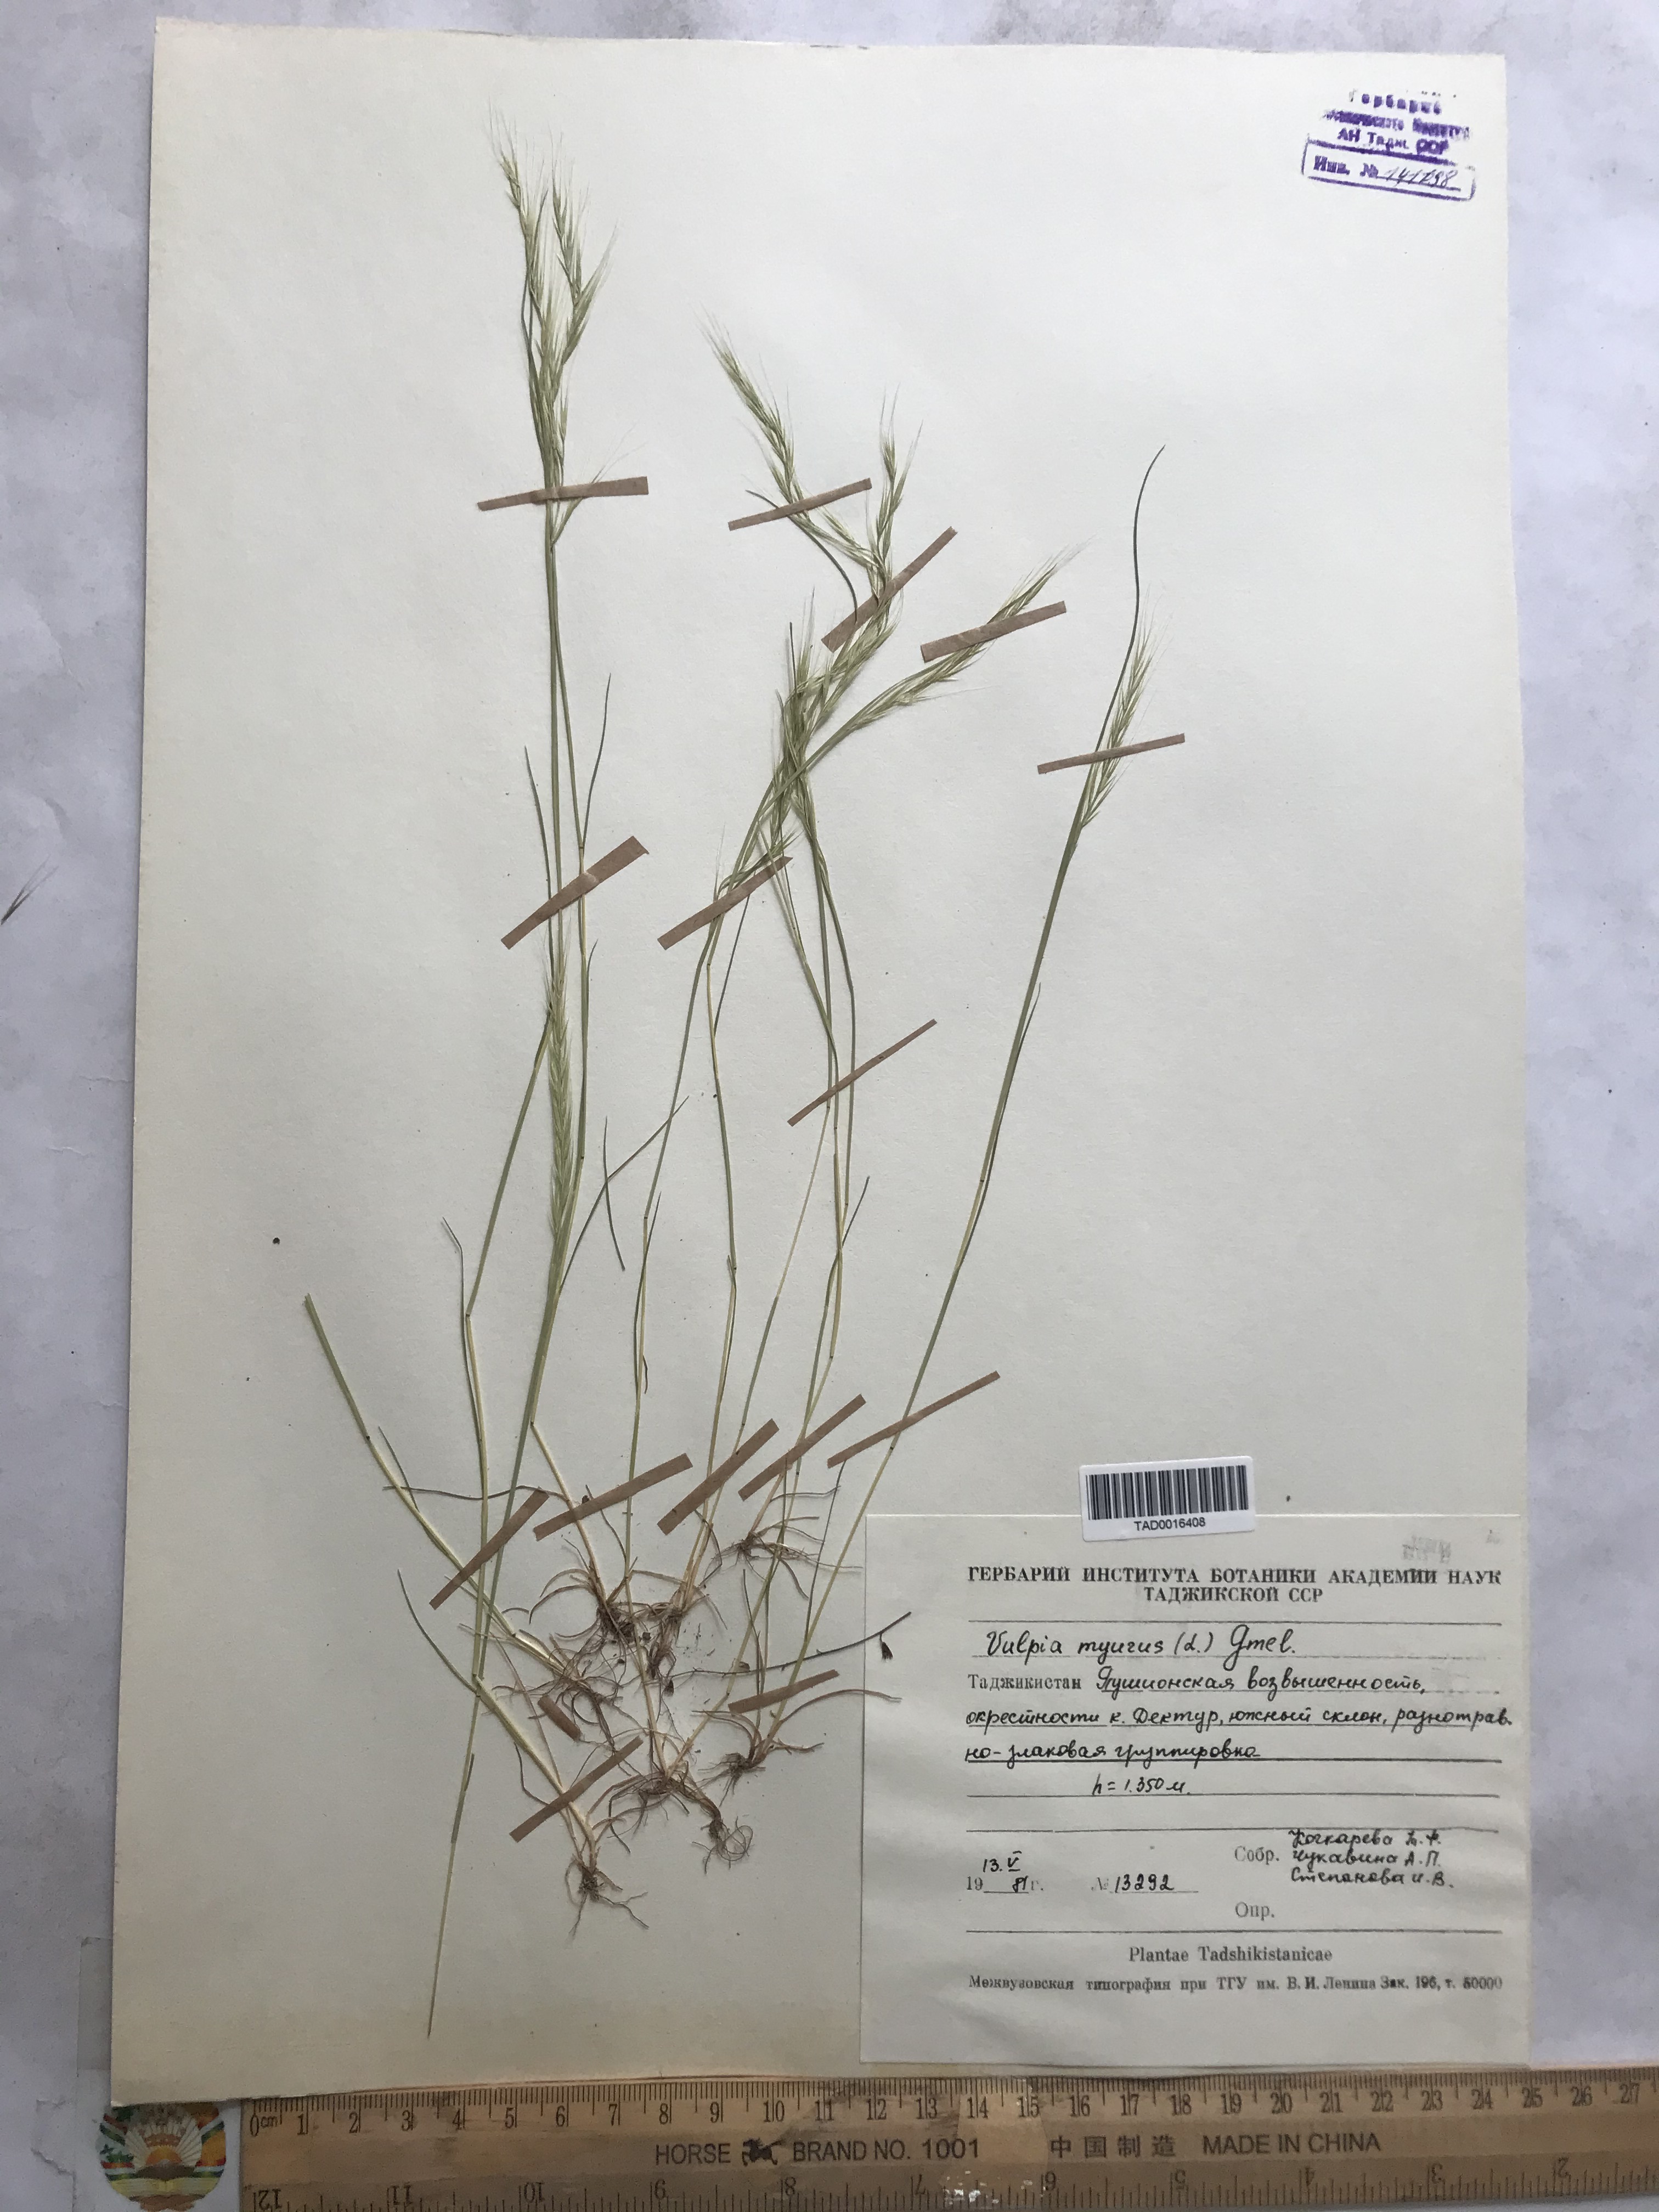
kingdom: Plantae
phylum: Tracheophyta
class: Liliopsida
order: Poales
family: Poaceae
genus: Festuca
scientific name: Festuca myuros
